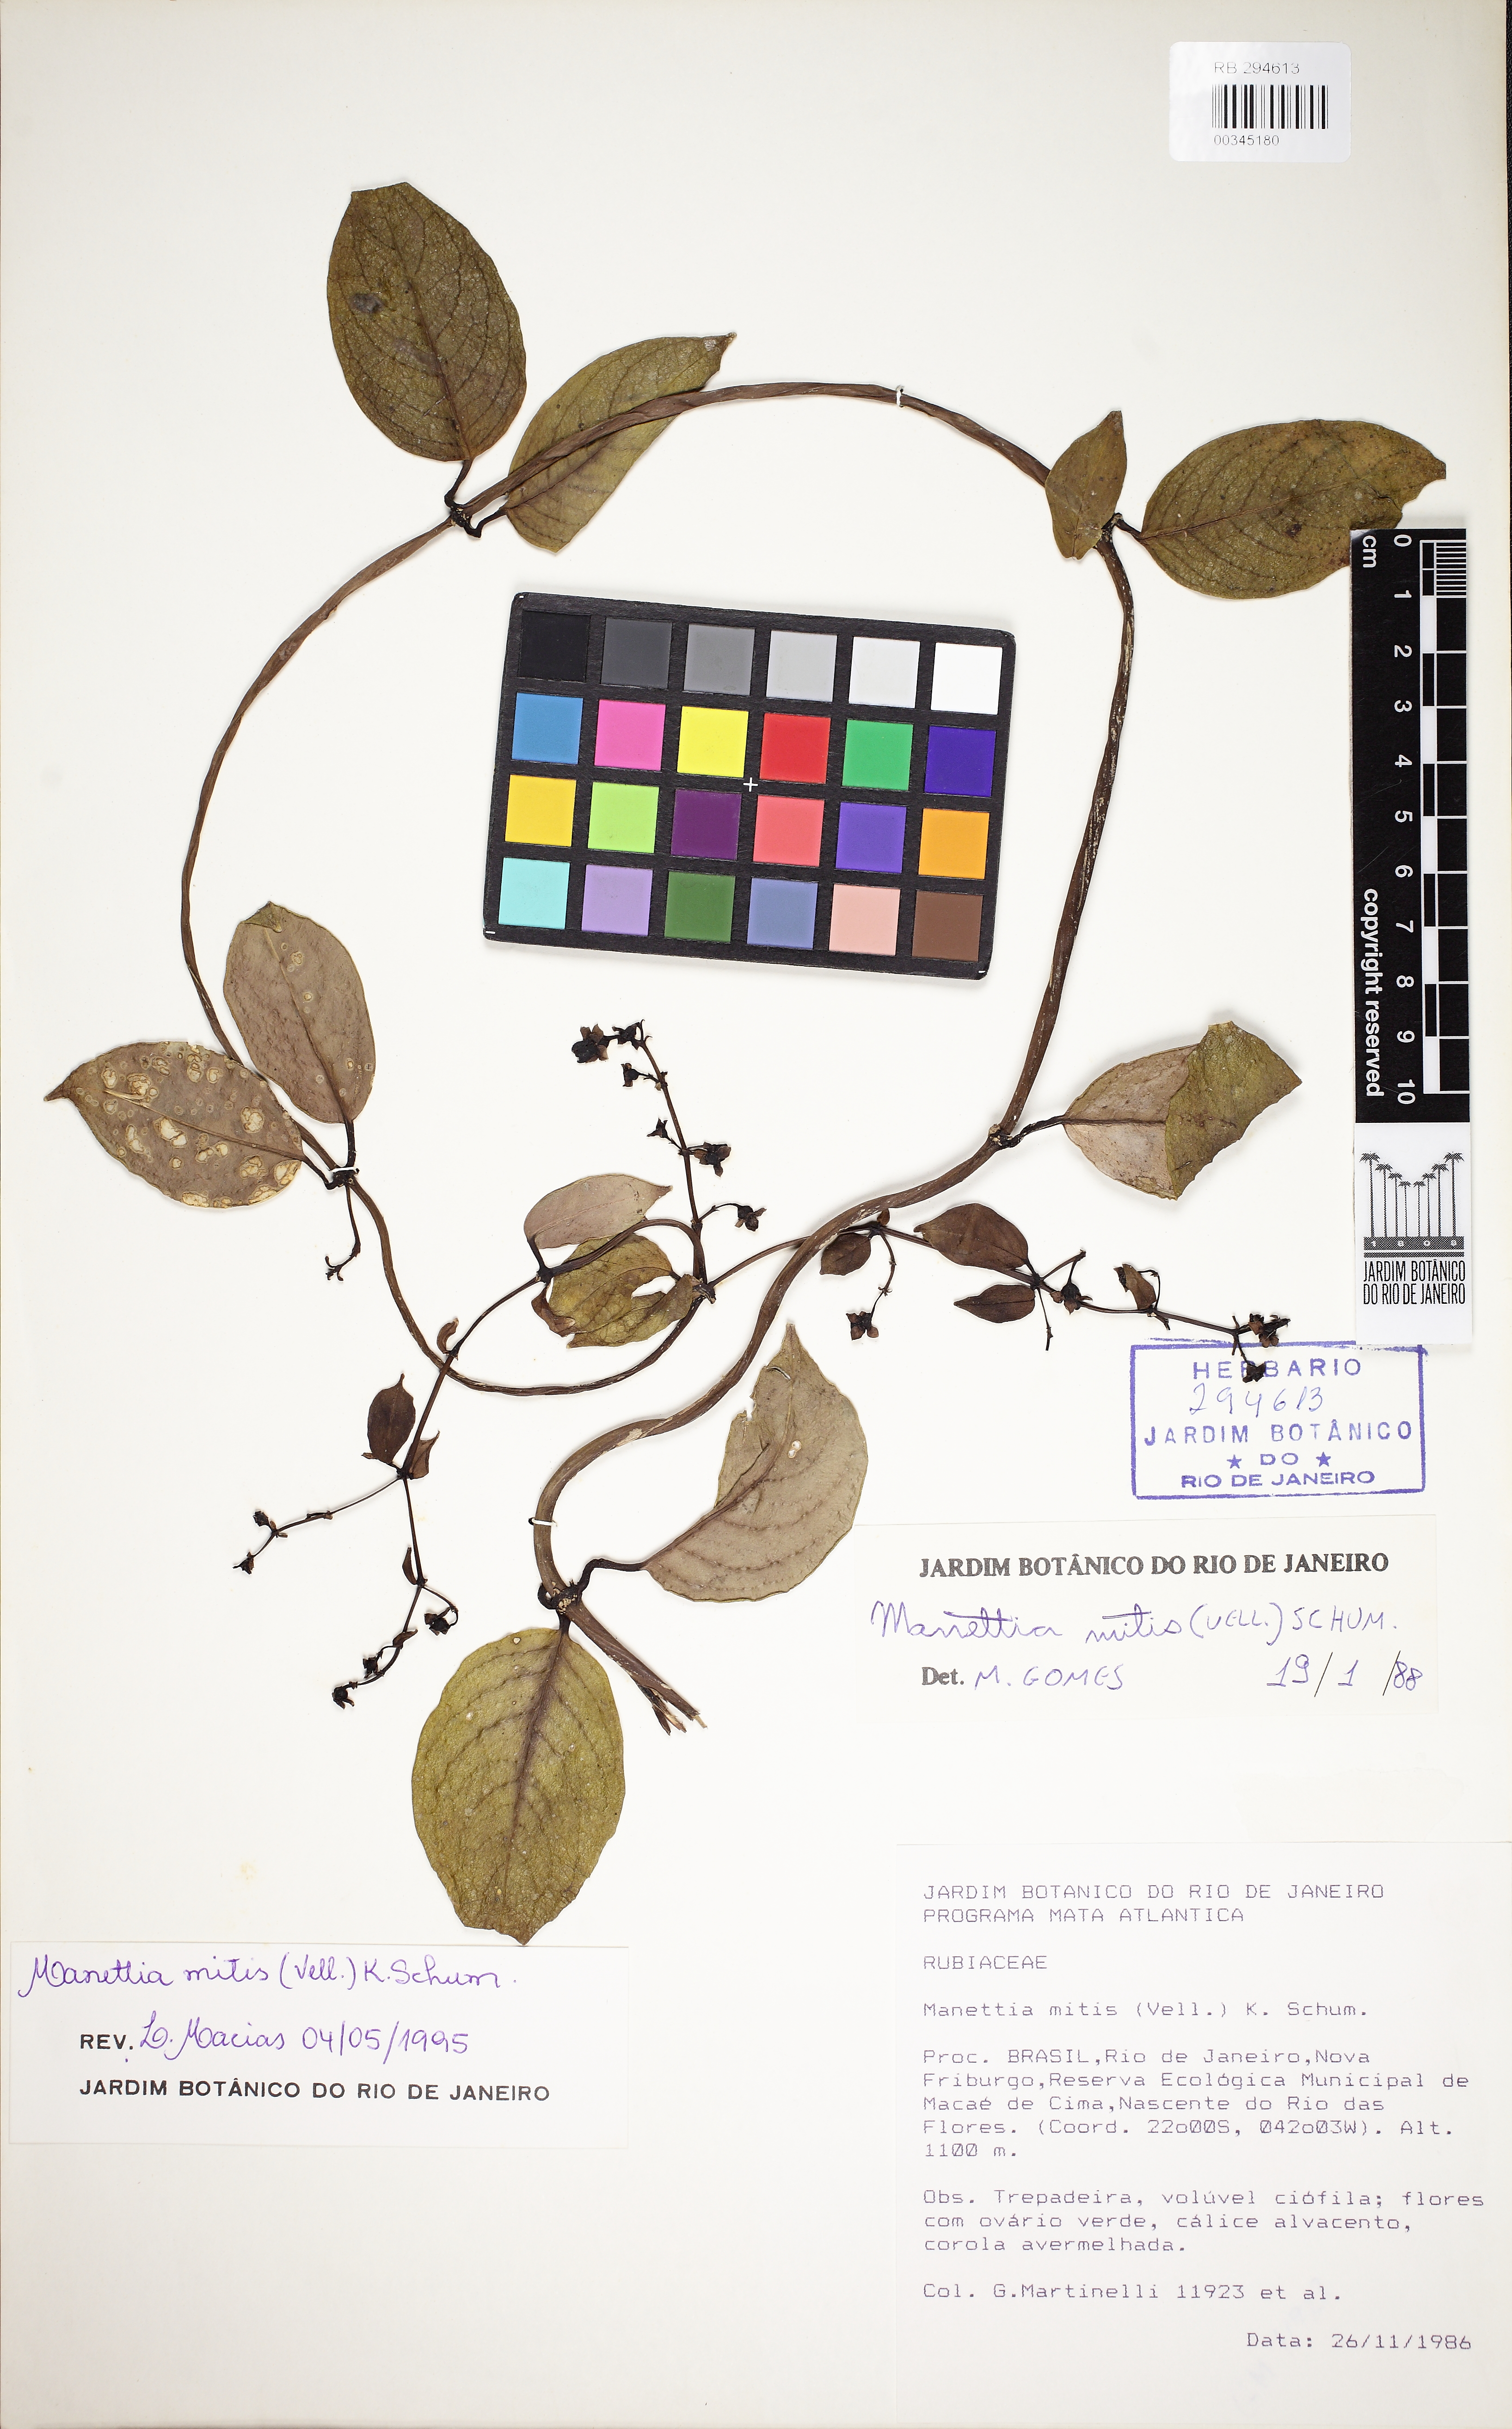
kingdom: Plantae
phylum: Tracheophyta
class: Magnoliopsida
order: Gentianales
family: Rubiaceae
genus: Manettia
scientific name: Manettia mitis
